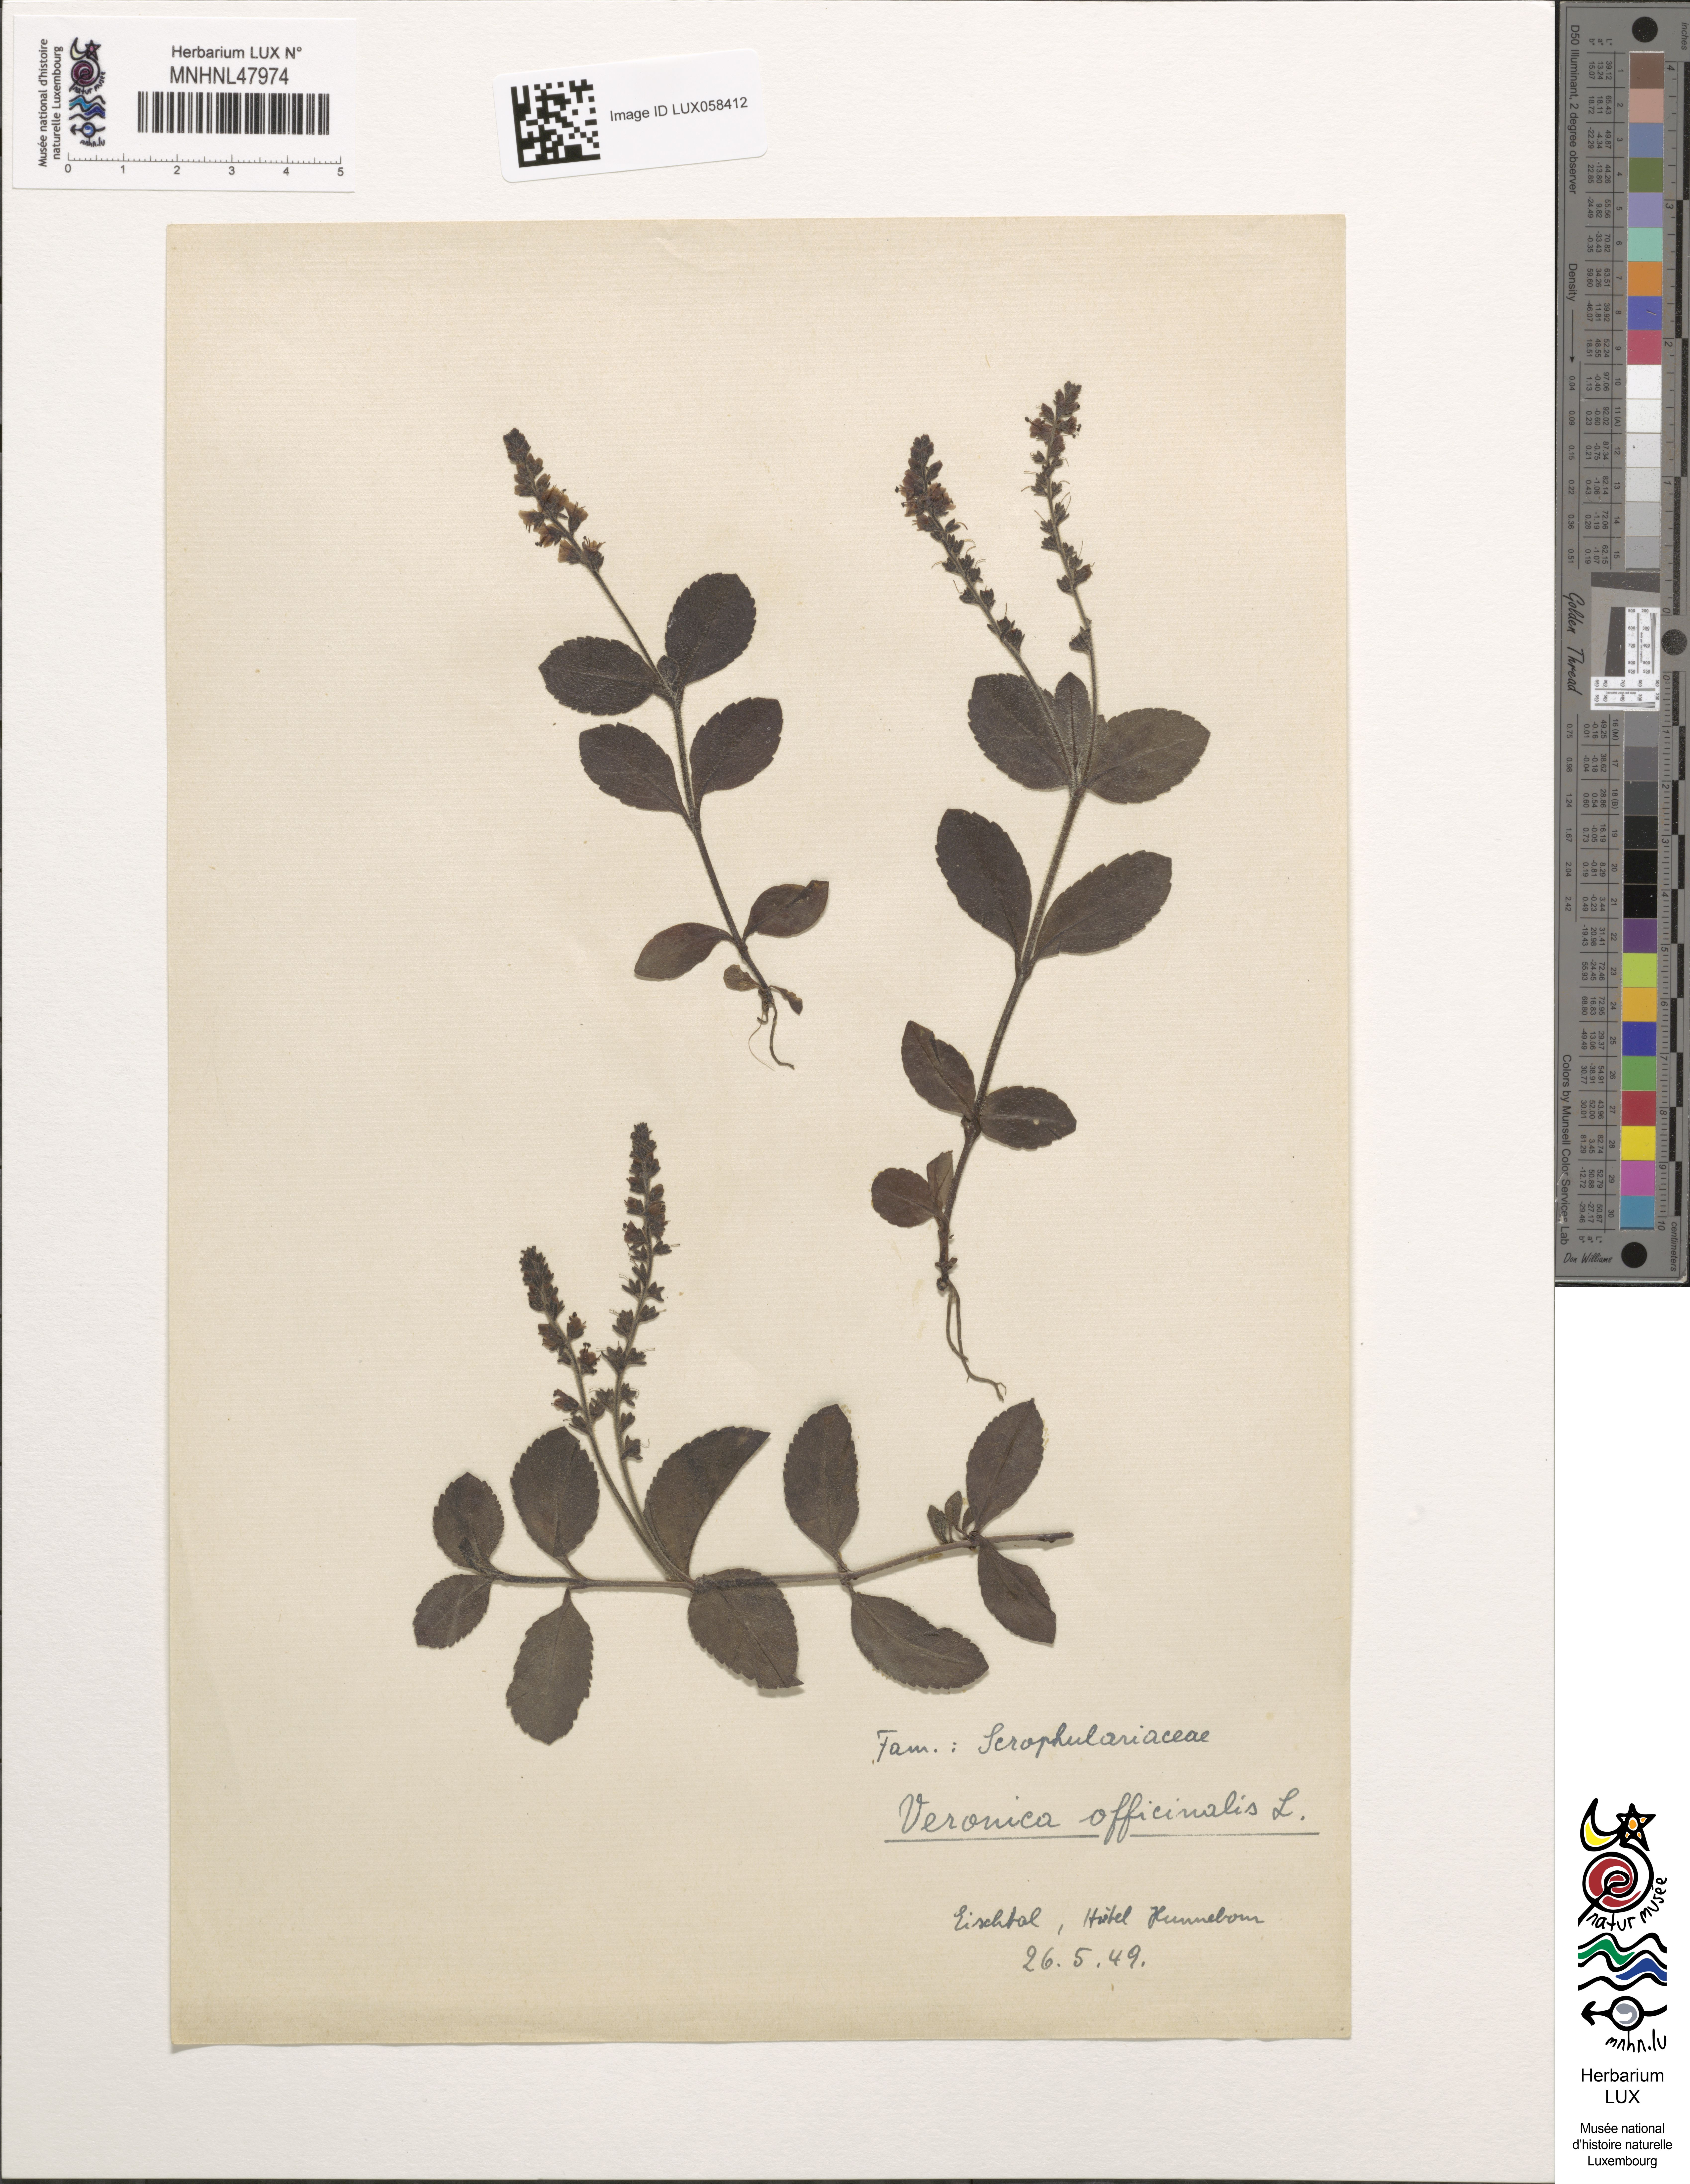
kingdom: Plantae
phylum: Tracheophyta
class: Magnoliopsida
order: Lamiales
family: Plantaginaceae
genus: Veronica
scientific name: Veronica officinalis
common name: Common speedwell
